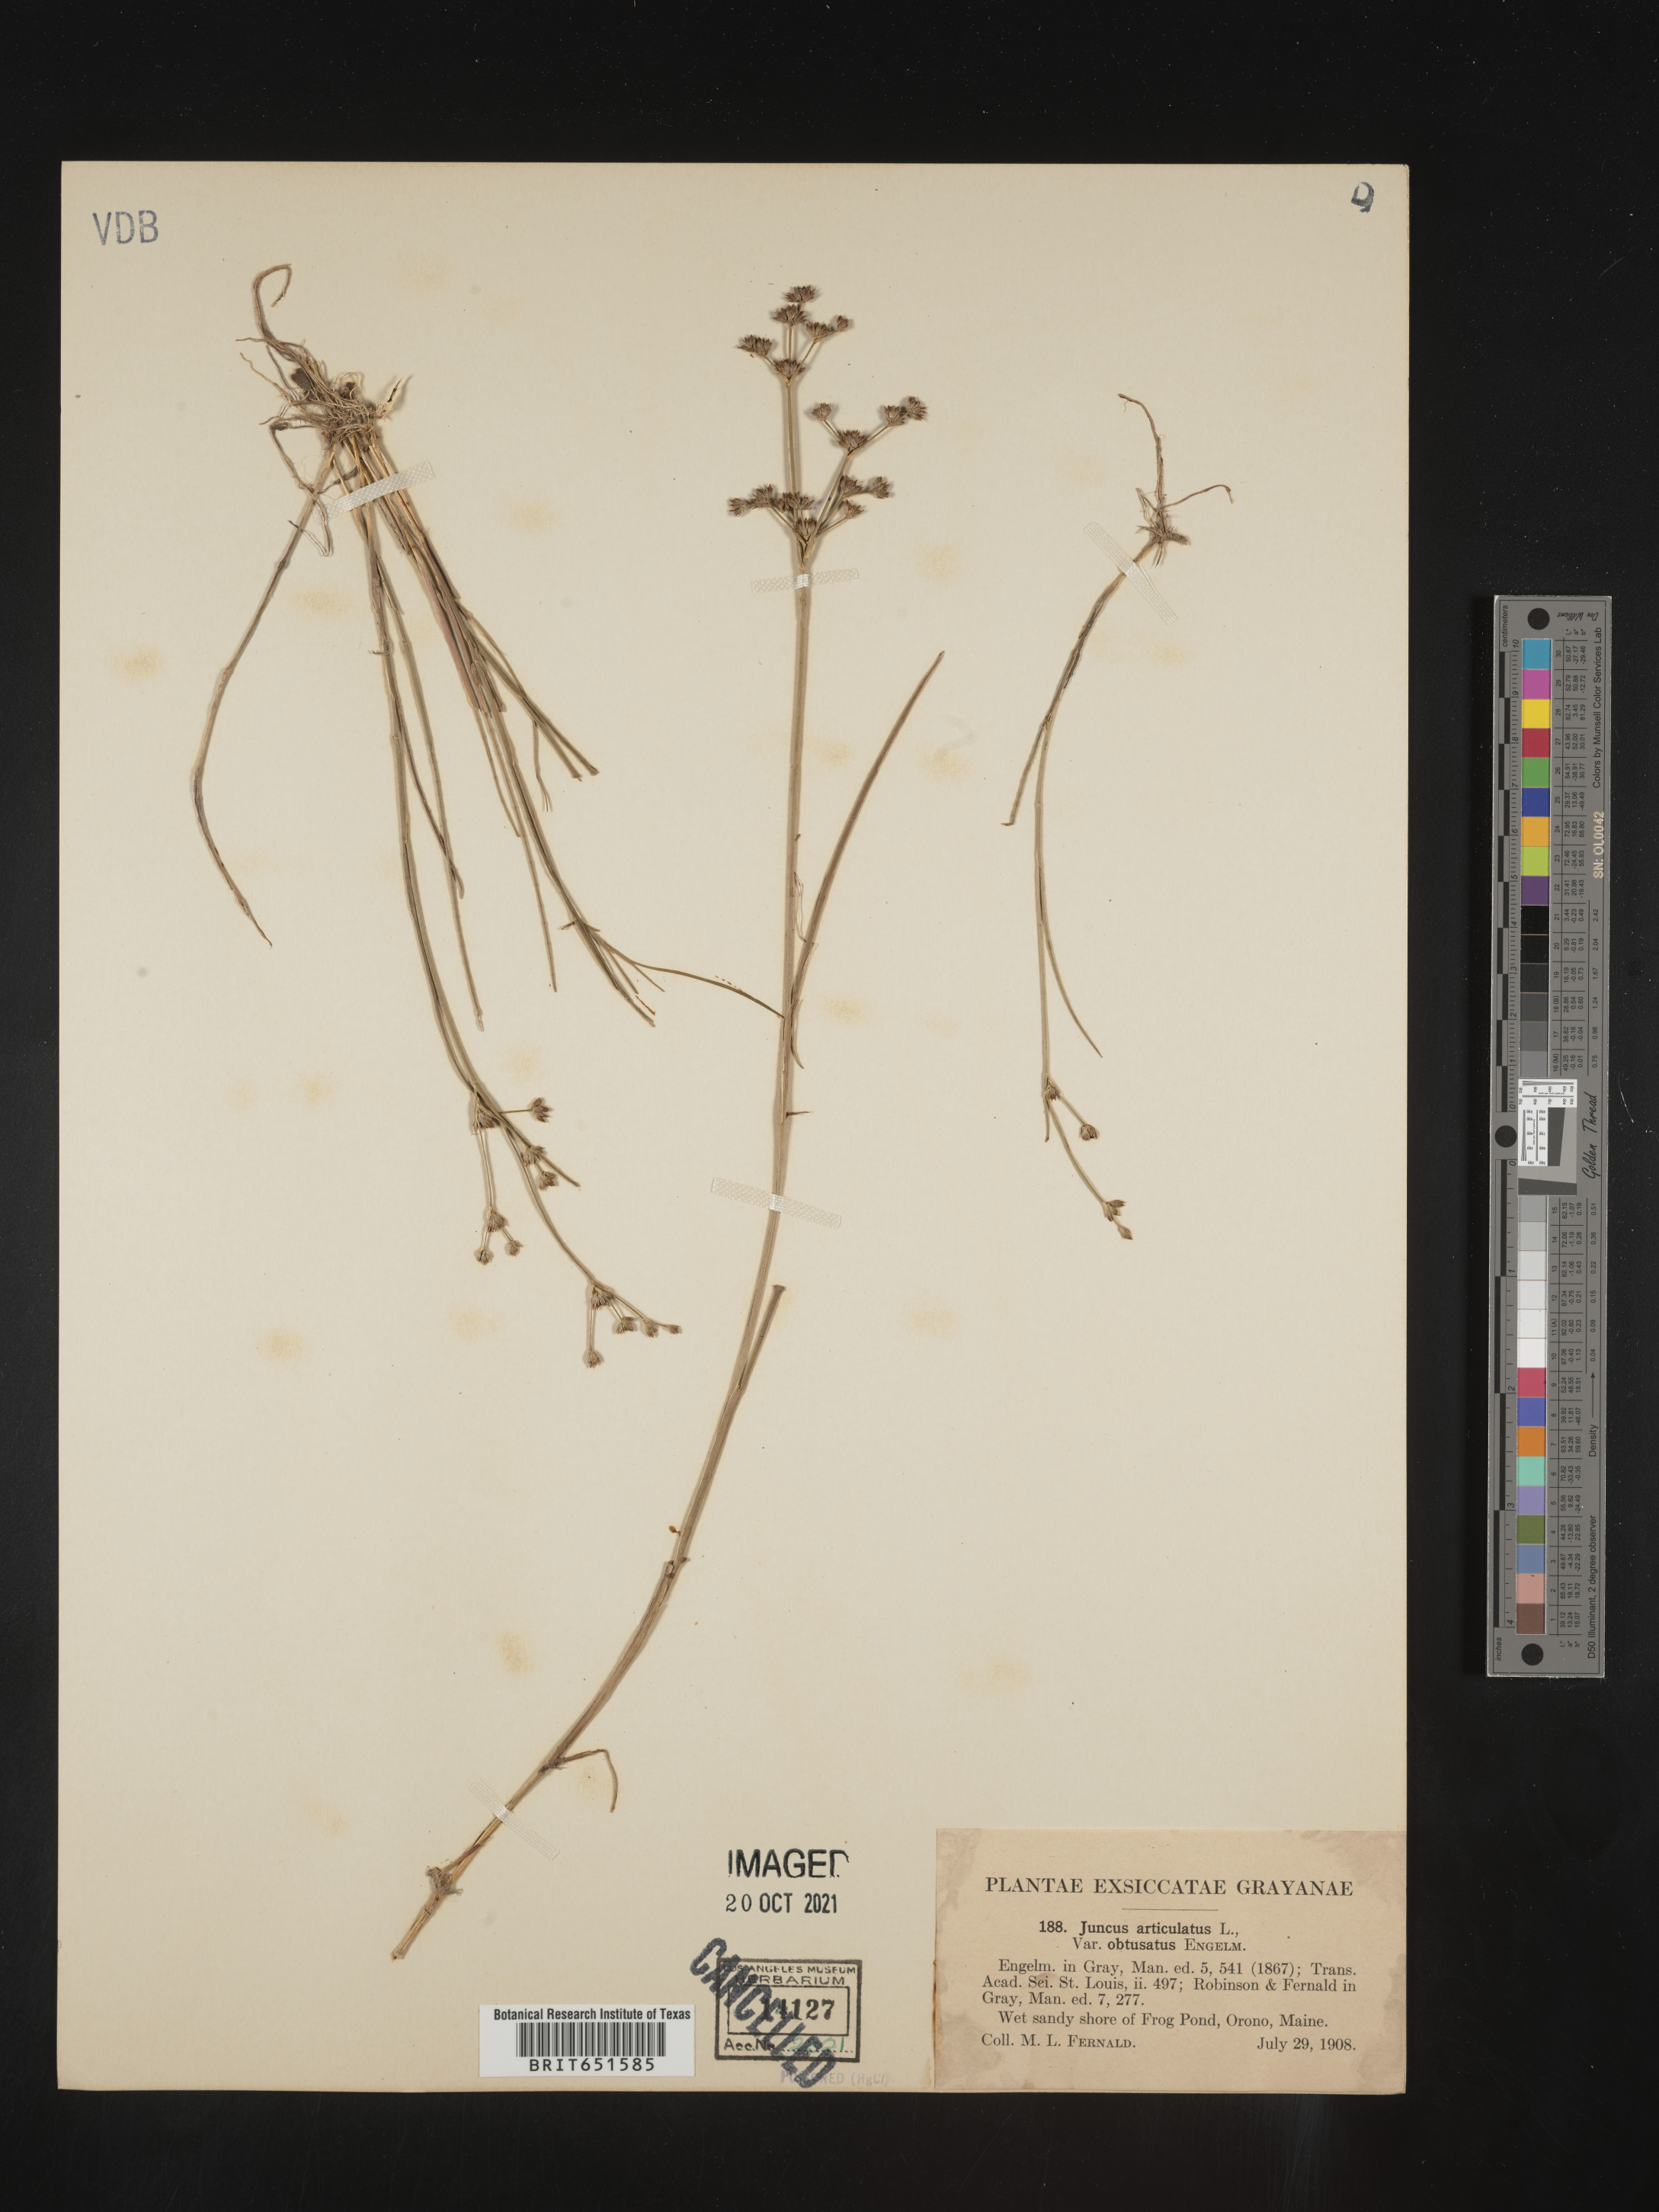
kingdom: Plantae
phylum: Tracheophyta
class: Liliopsida
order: Poales
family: Juncaceae
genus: Juncus
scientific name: Juncus articulatus
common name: Jointed rush
